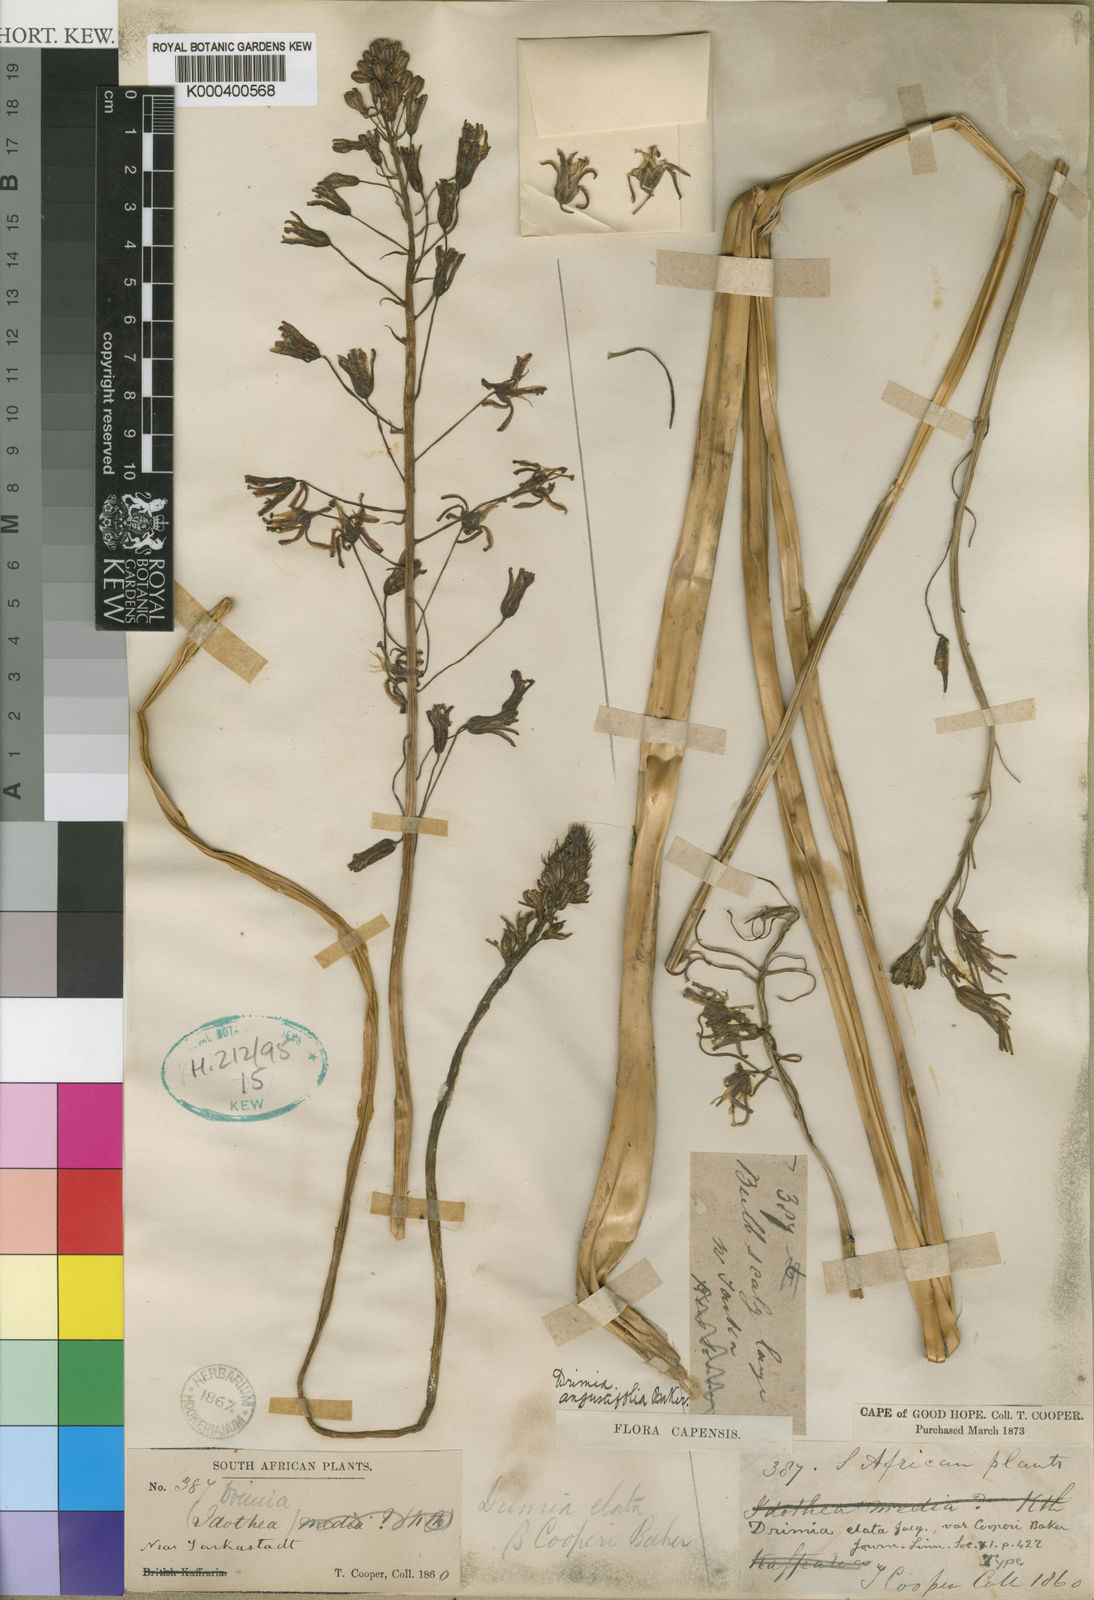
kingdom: Plantae
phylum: Tracheophyta
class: Liliopsida
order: Asparagales
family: Asparagaceae
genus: Drimia
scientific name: Drimia basutica
